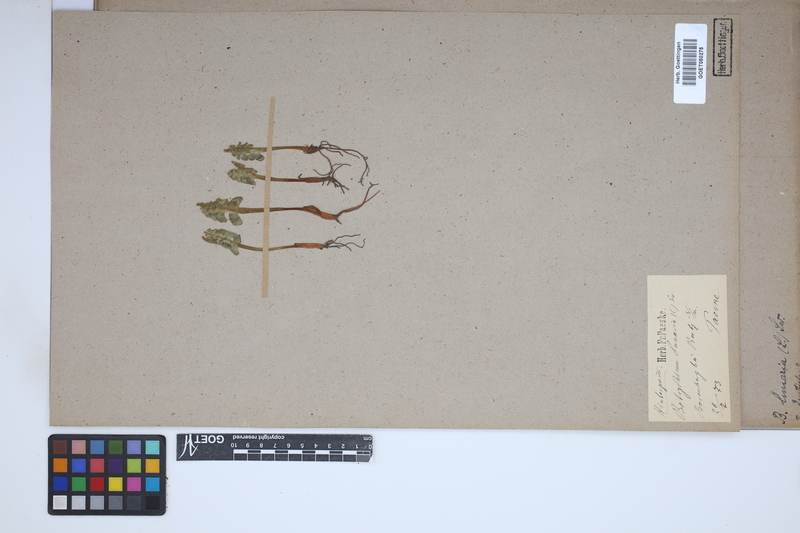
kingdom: Plantae
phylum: Tracheophyta
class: Polypodiopsida
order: Ophioglossales
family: Ophioglossaceae
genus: Botrychium
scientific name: Botrychium lunaria
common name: Moonwort
